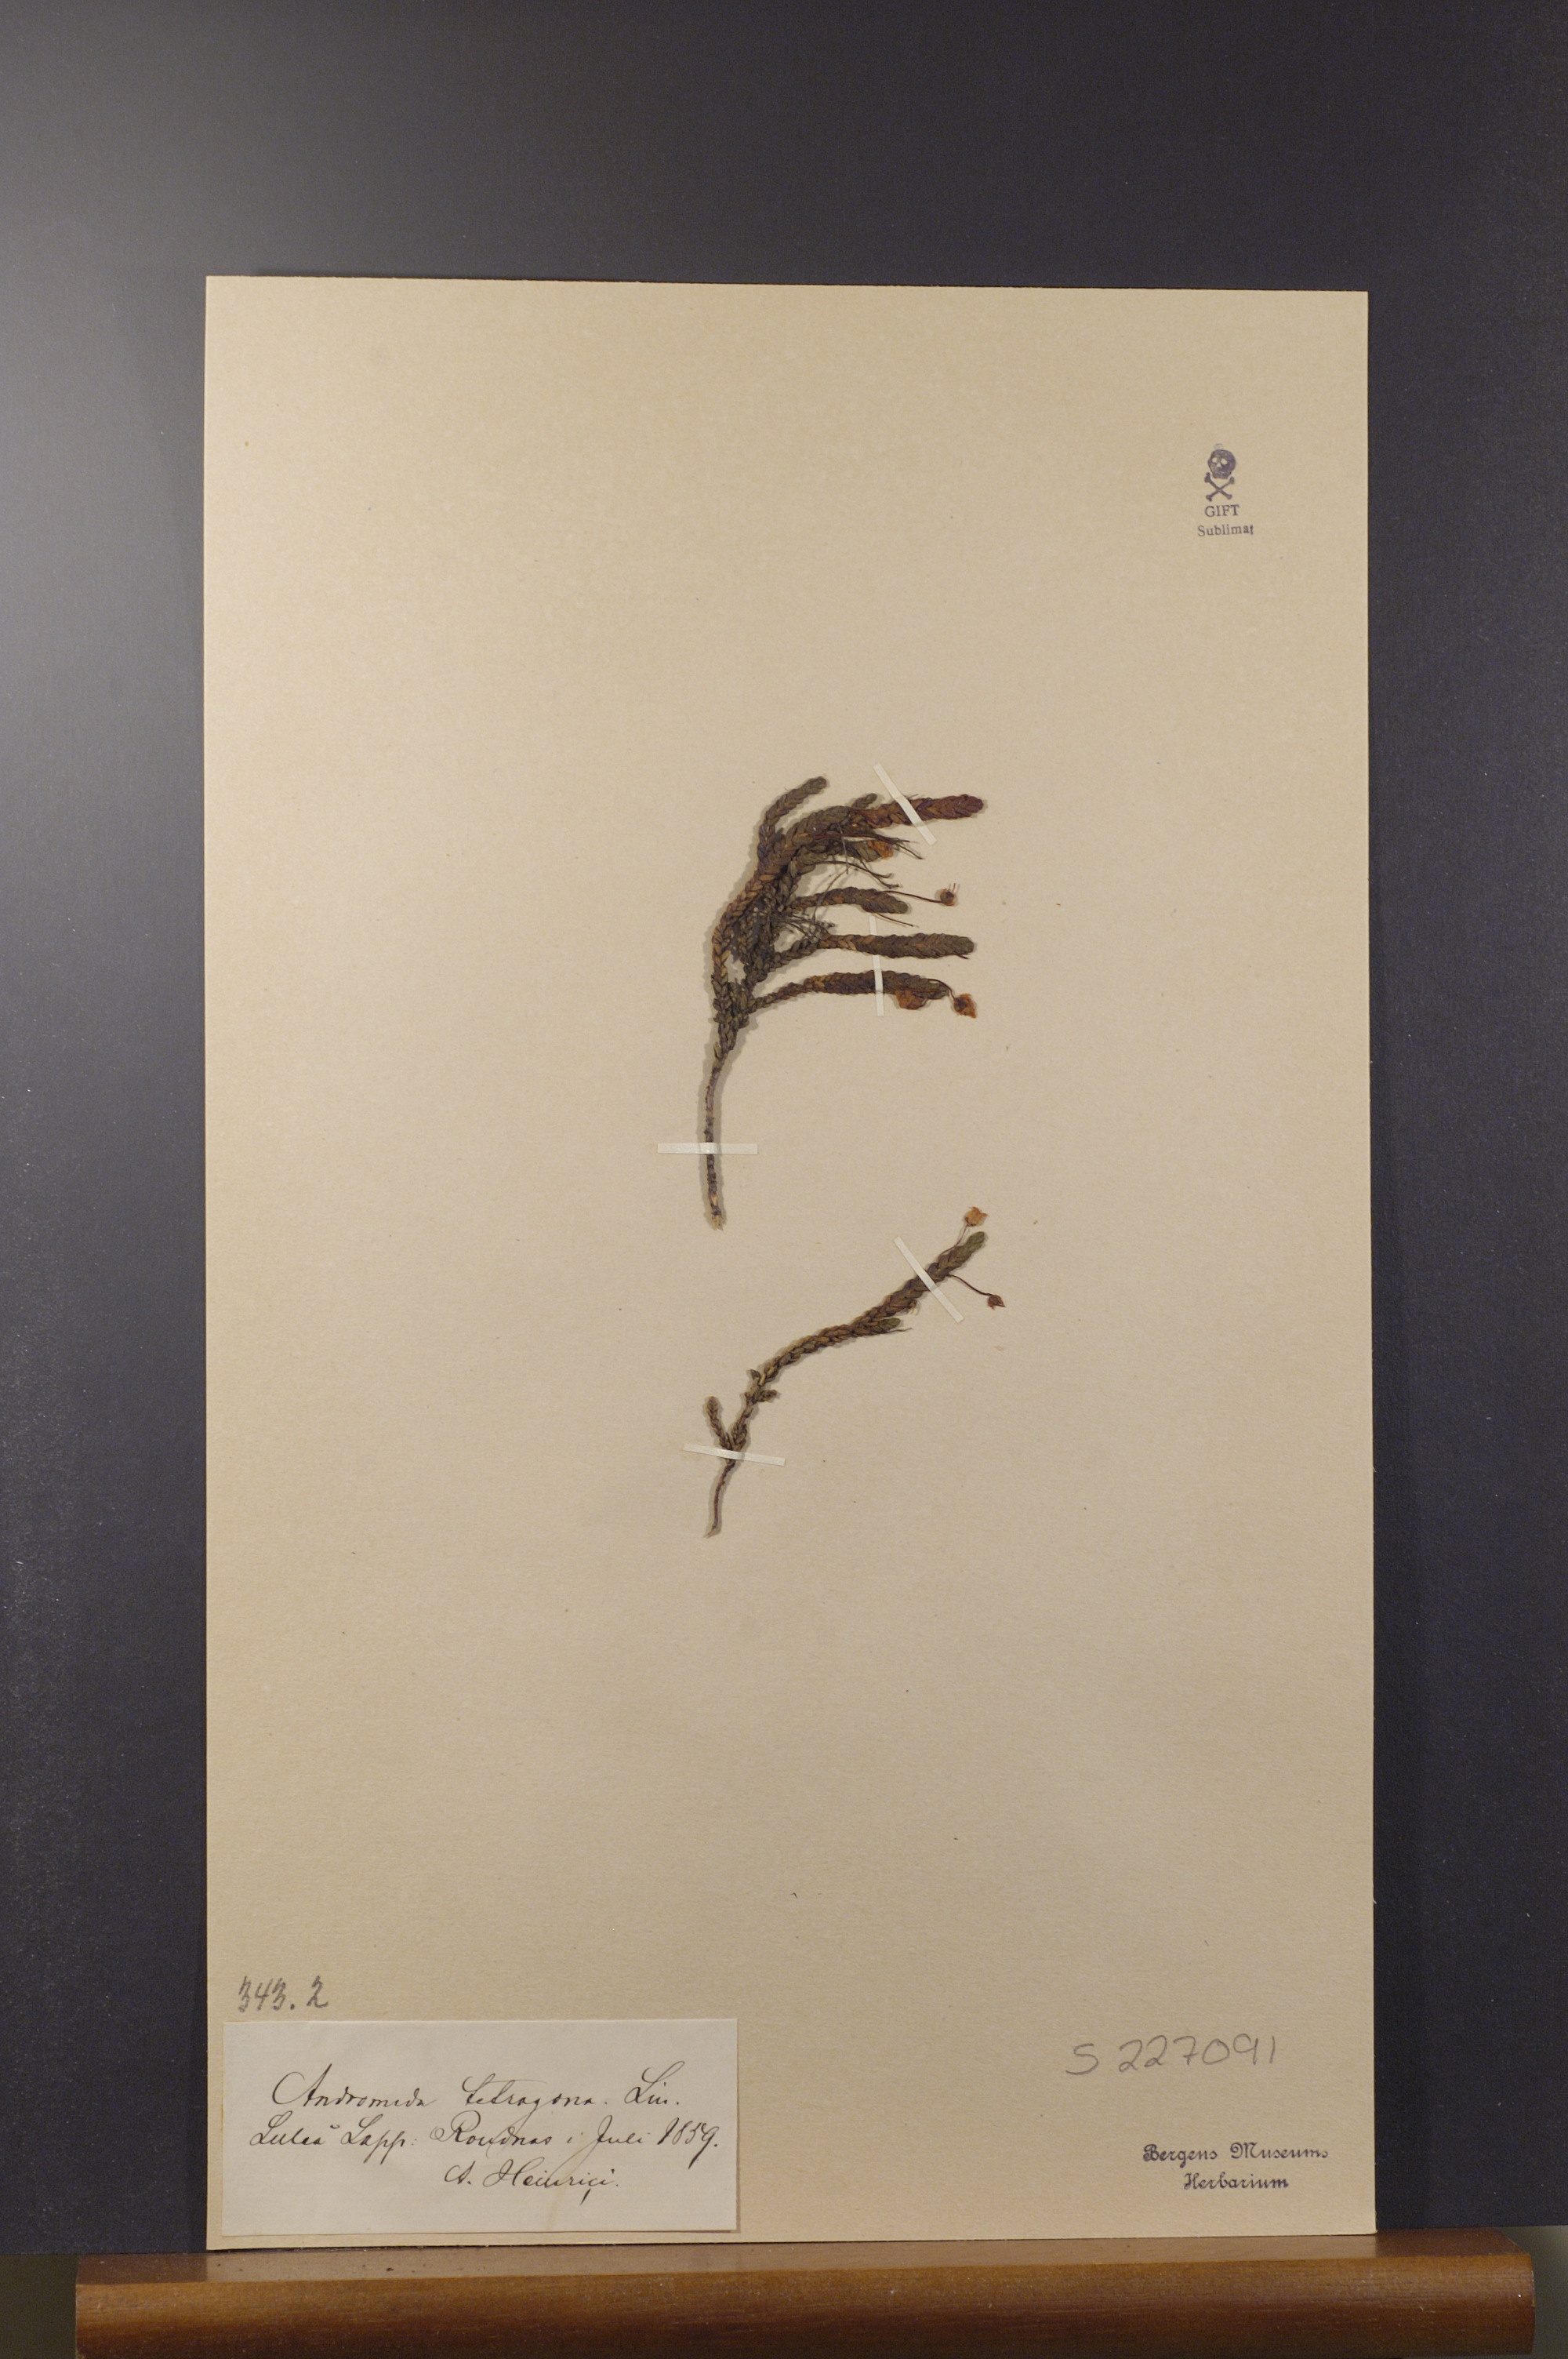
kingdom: Plantae
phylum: Tracheophyta
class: Magnoliopsida
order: Ericales
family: Ericaceae
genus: Cassiope
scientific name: Cassiope tetragona
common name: Arctic bell heather
